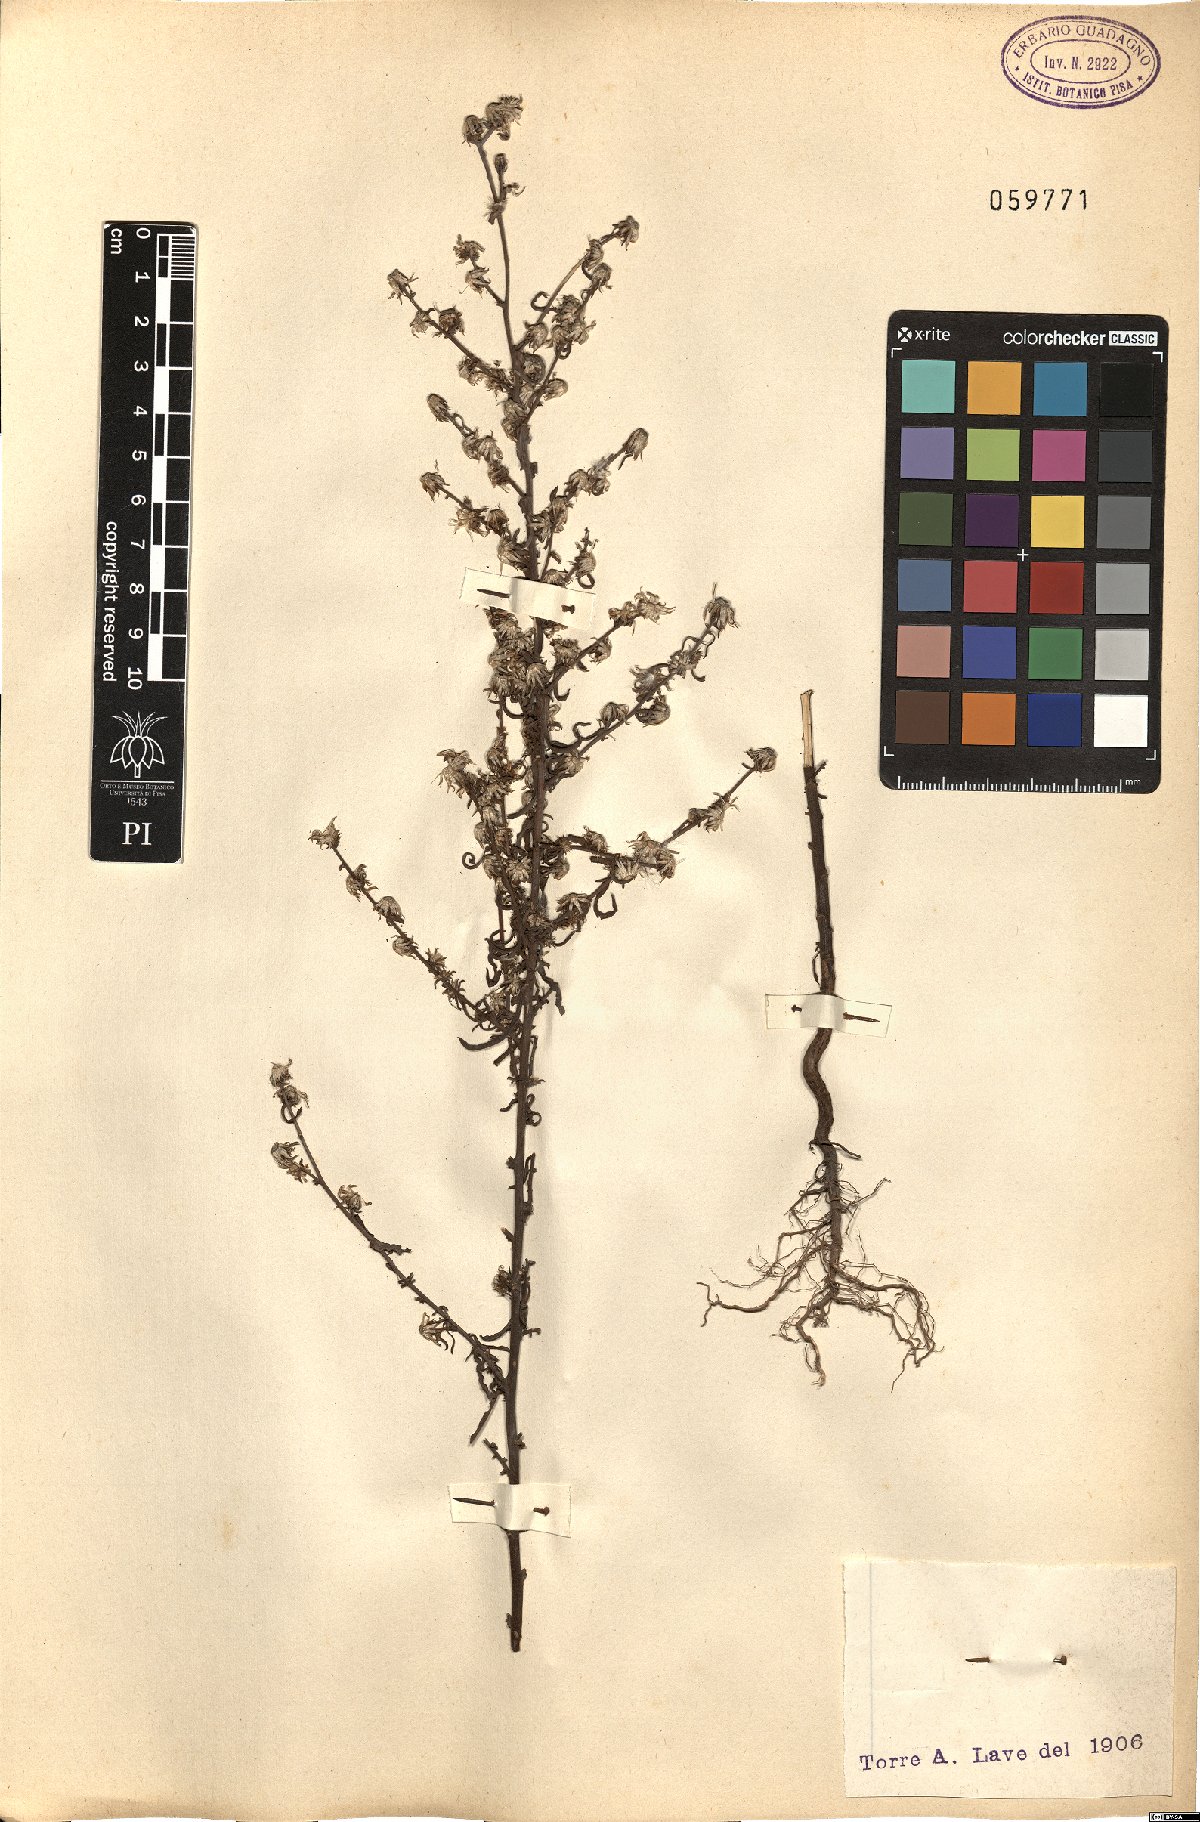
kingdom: Plantae
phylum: Tracheophyta
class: Magnoliopsida
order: Asterales
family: Asteraceae
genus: Erigeron
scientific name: Erigeron
